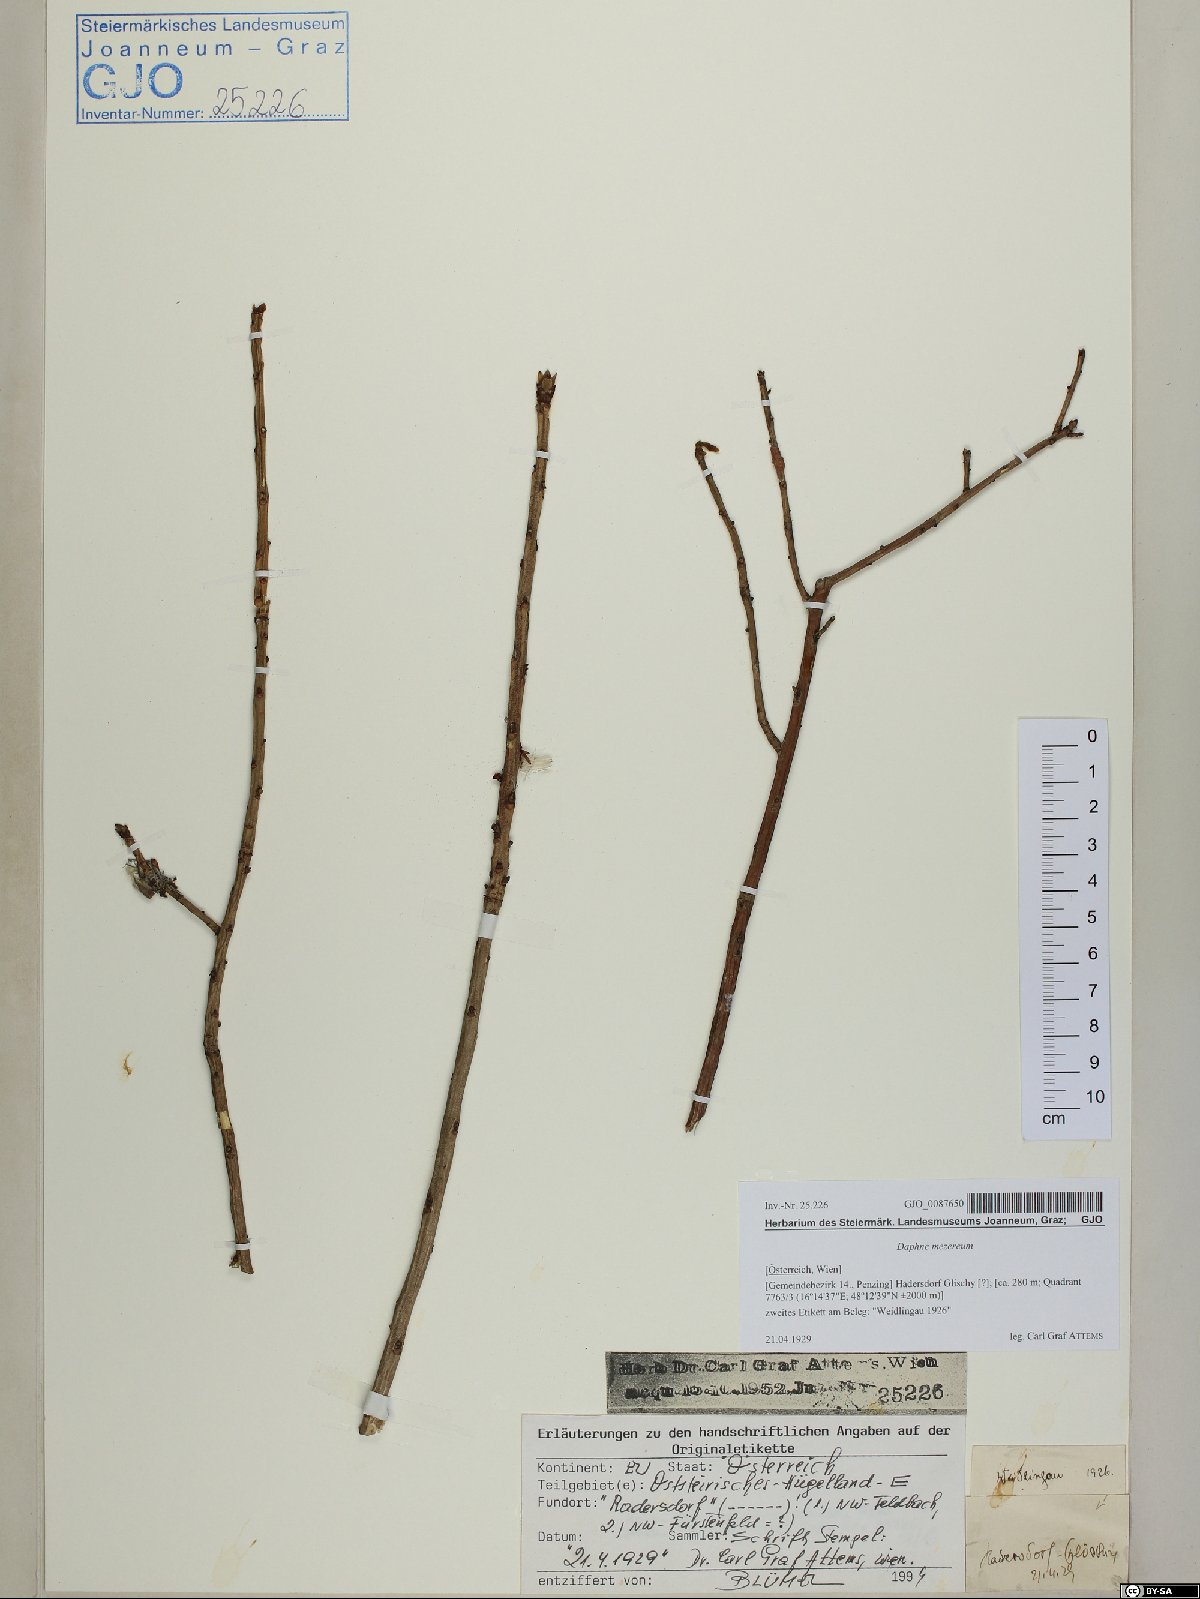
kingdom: Plantae
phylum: Tracheophyta
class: Magnoliopsida
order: Malvales
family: Thymelaeaceae
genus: Daphne
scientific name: Daphne mezereum
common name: Mezereon
